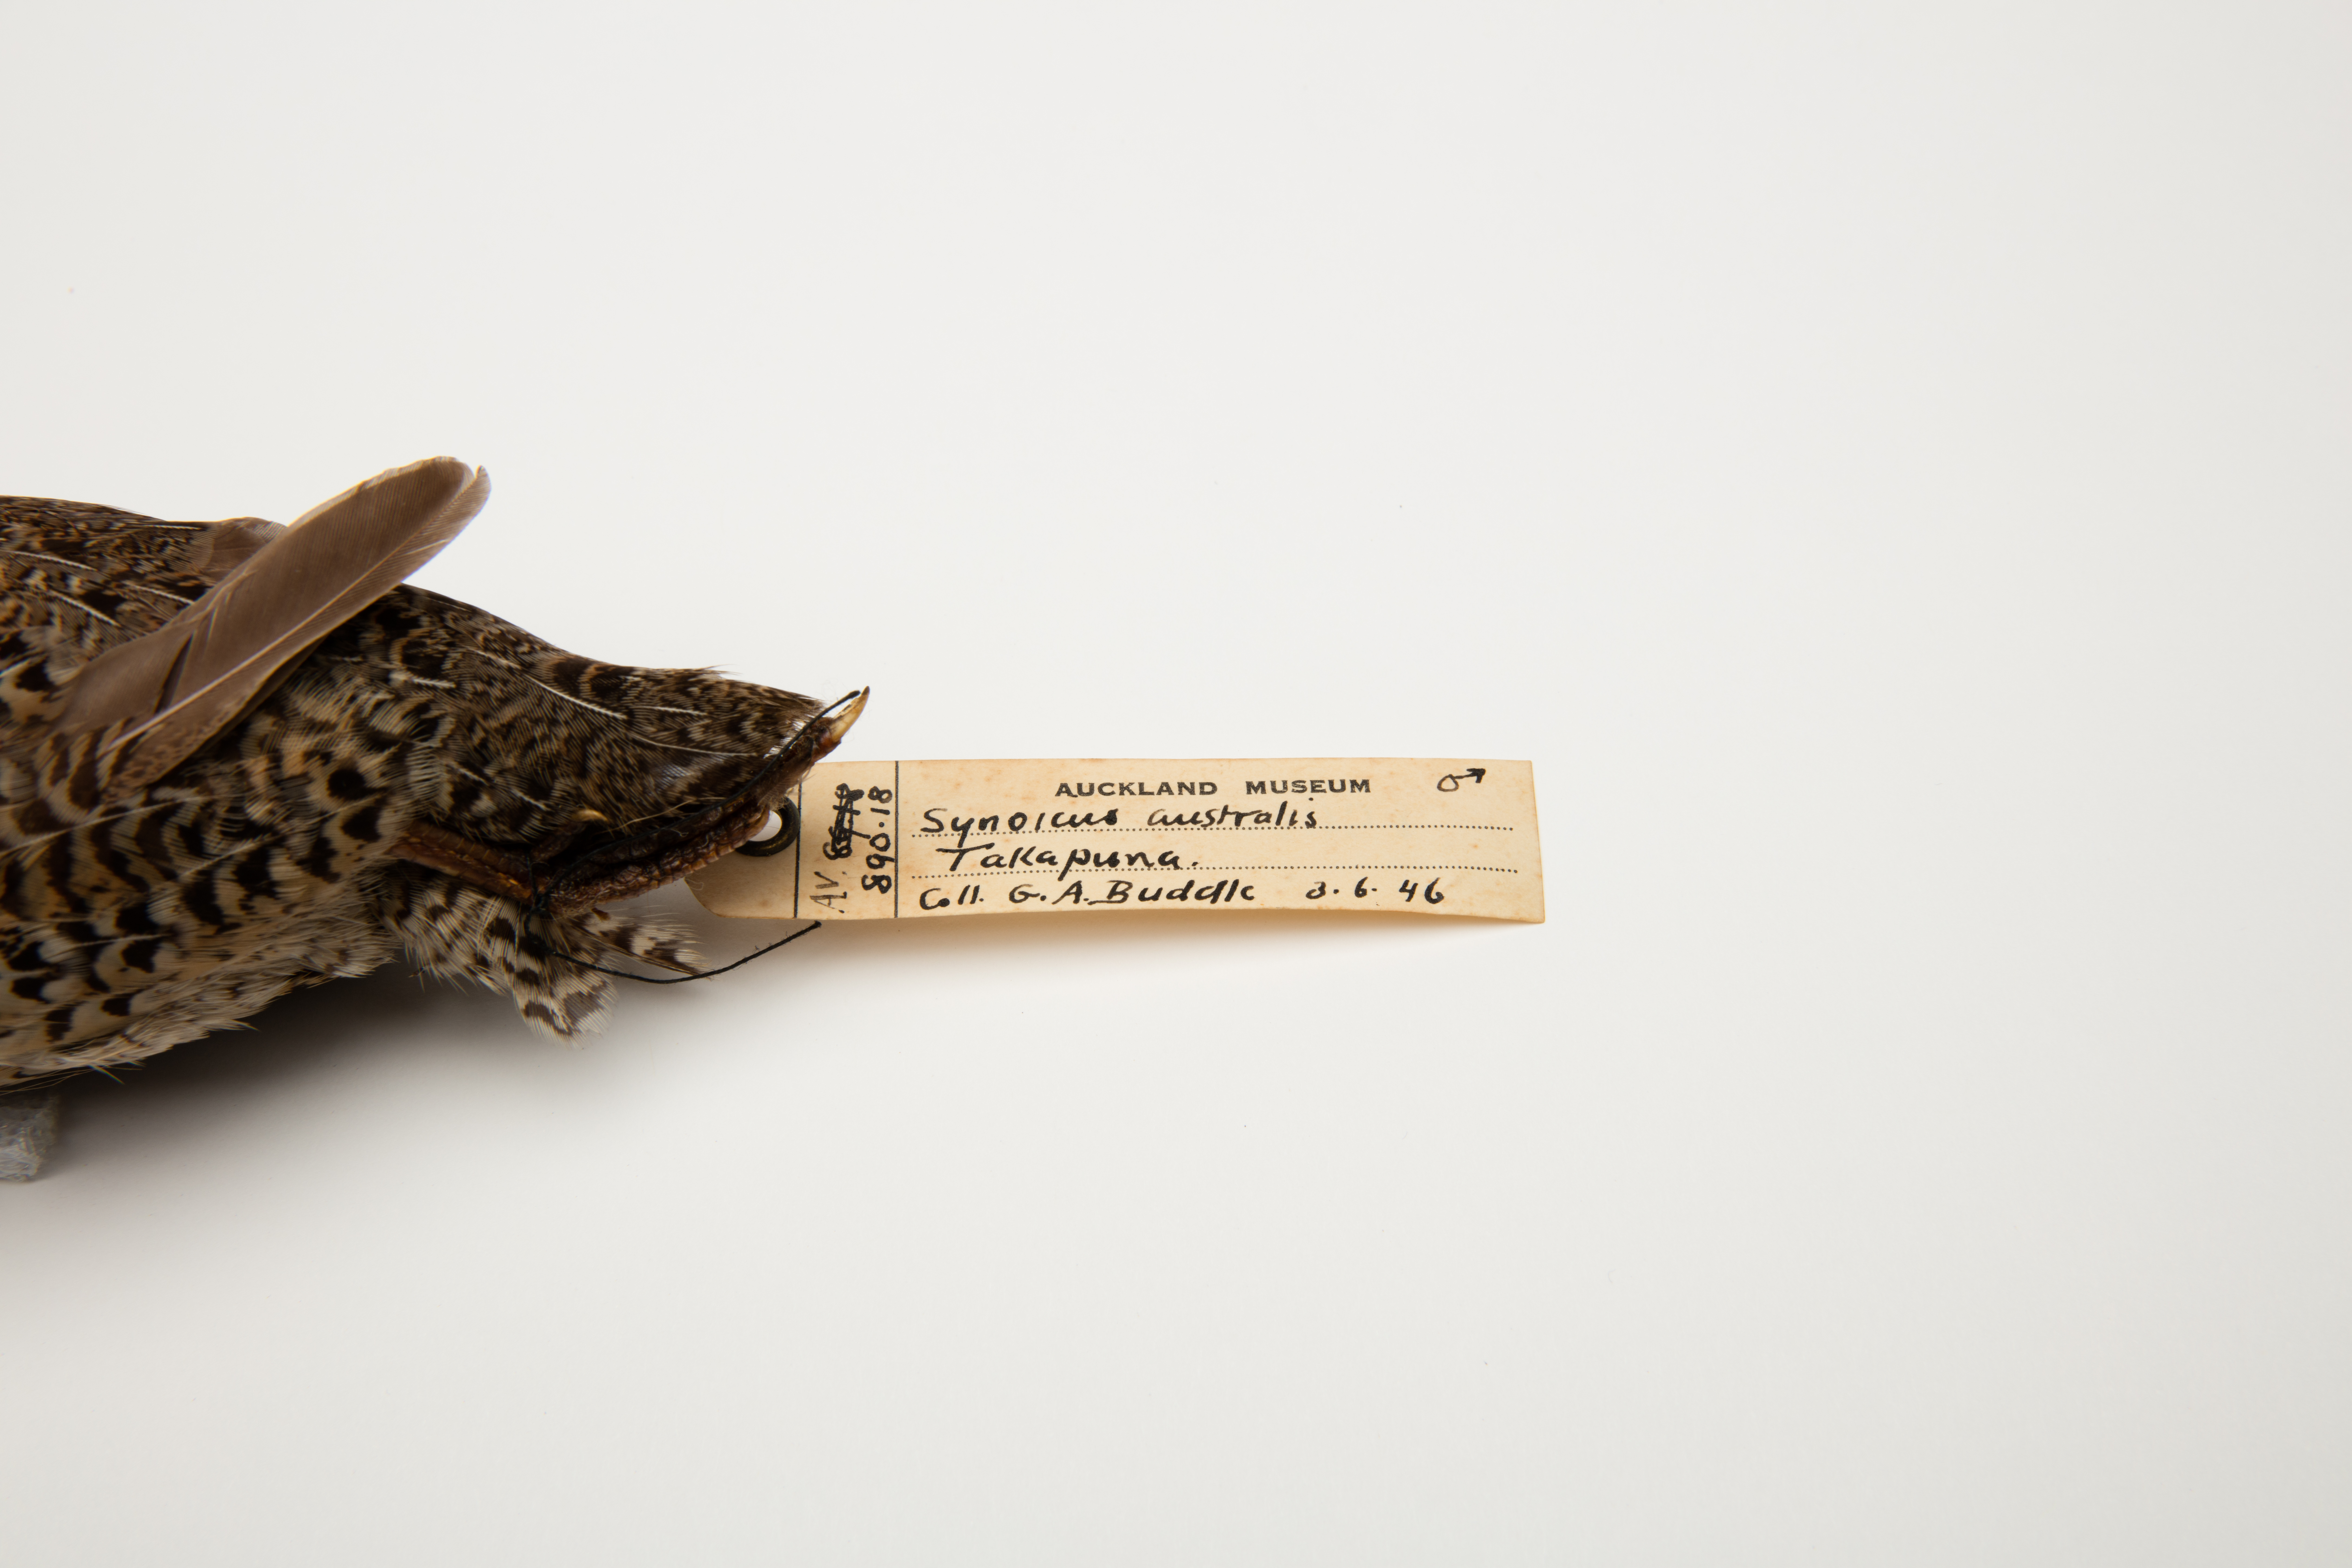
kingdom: Animalia
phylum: Chordata
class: Aves
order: Galliformes
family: Phasianidae
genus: Synoicus
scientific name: Synoicus ypsilophorus
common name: Brown quail
